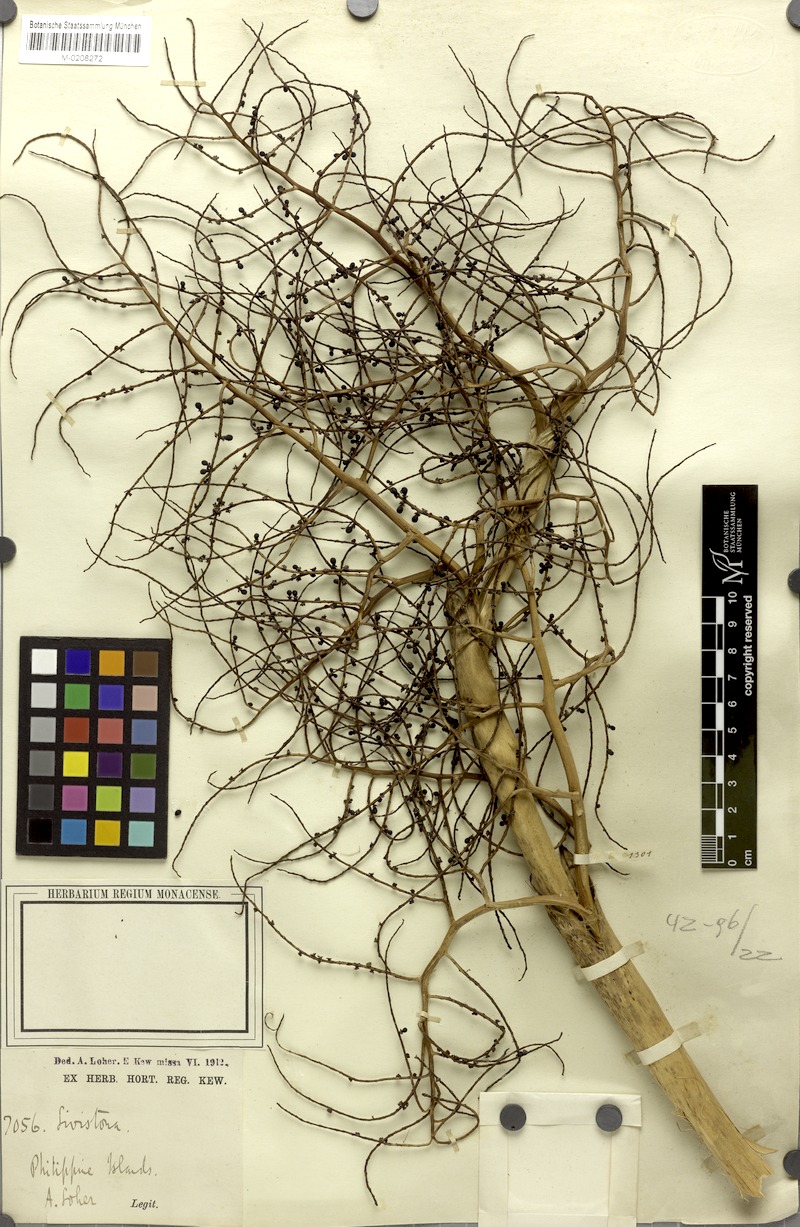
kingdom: Plantae
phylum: Tracheophyta
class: Liliopsida
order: Arecales
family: Arecaceae
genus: Livistona
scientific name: Livistona
